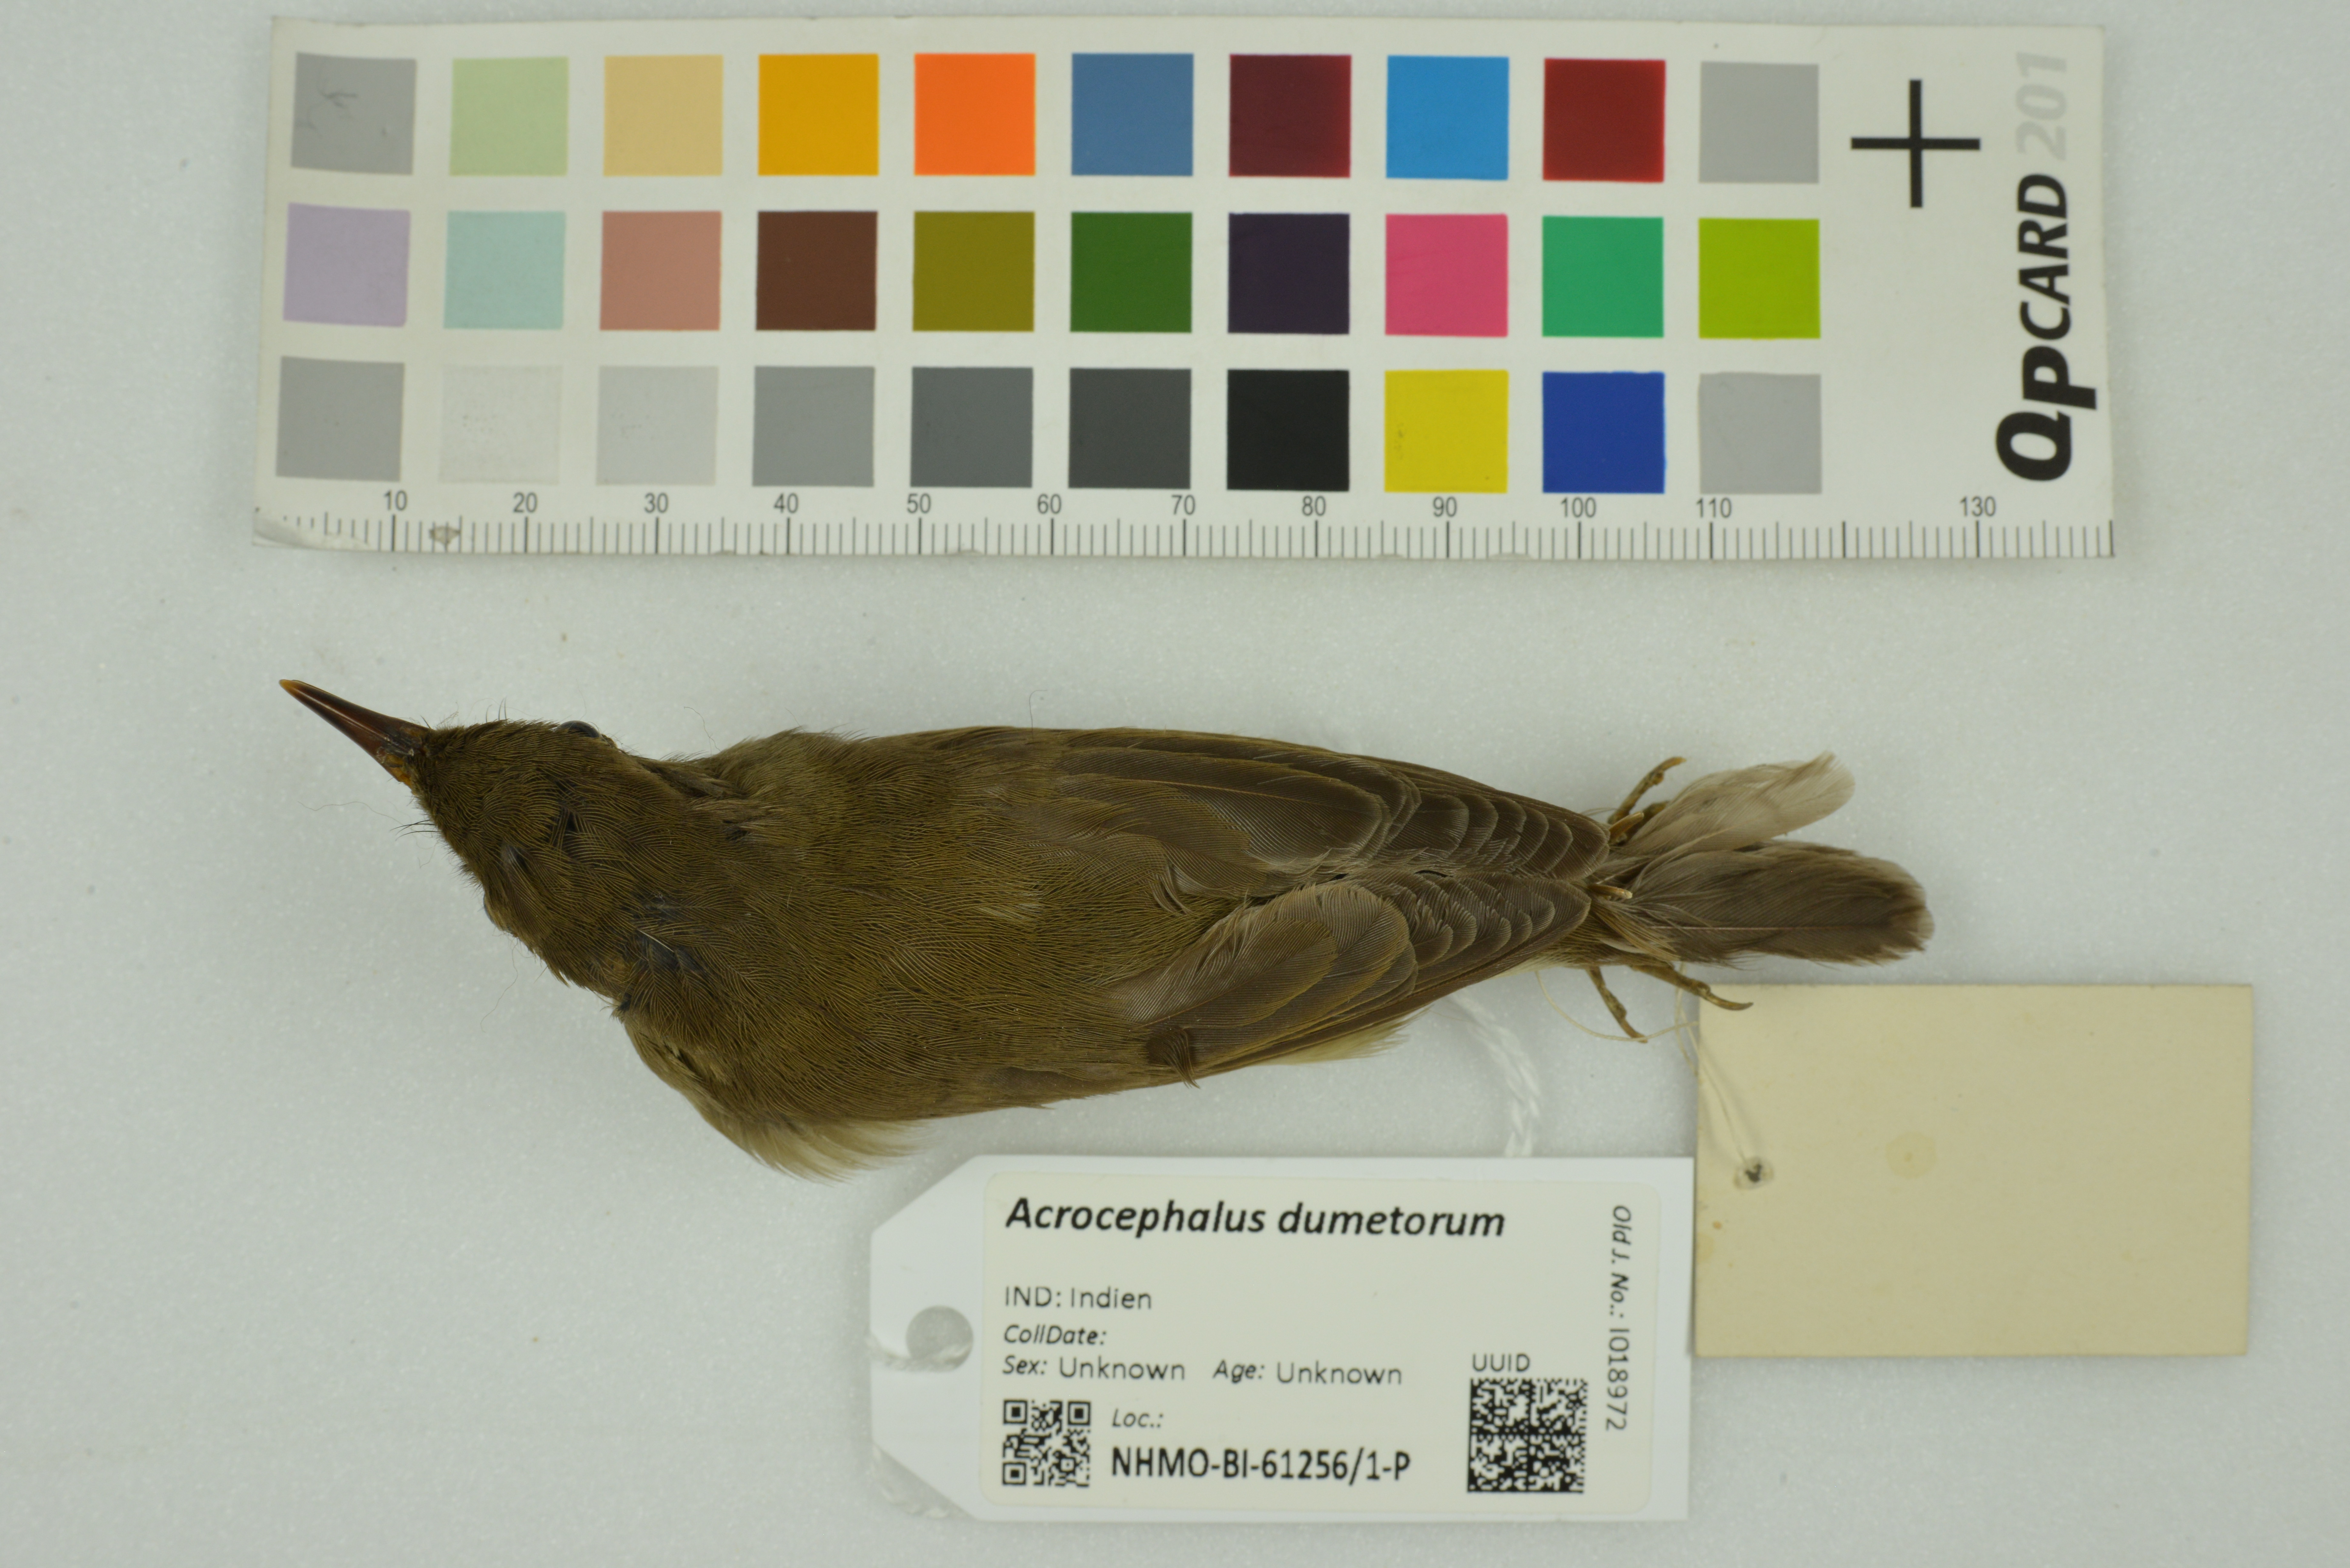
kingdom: Animalia
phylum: Chordata
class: Aves
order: Passeriformes
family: Acrocephalidae
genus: Acrocephalus
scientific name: Acrocephalus dumetorum
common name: Blyth's reed warbler
